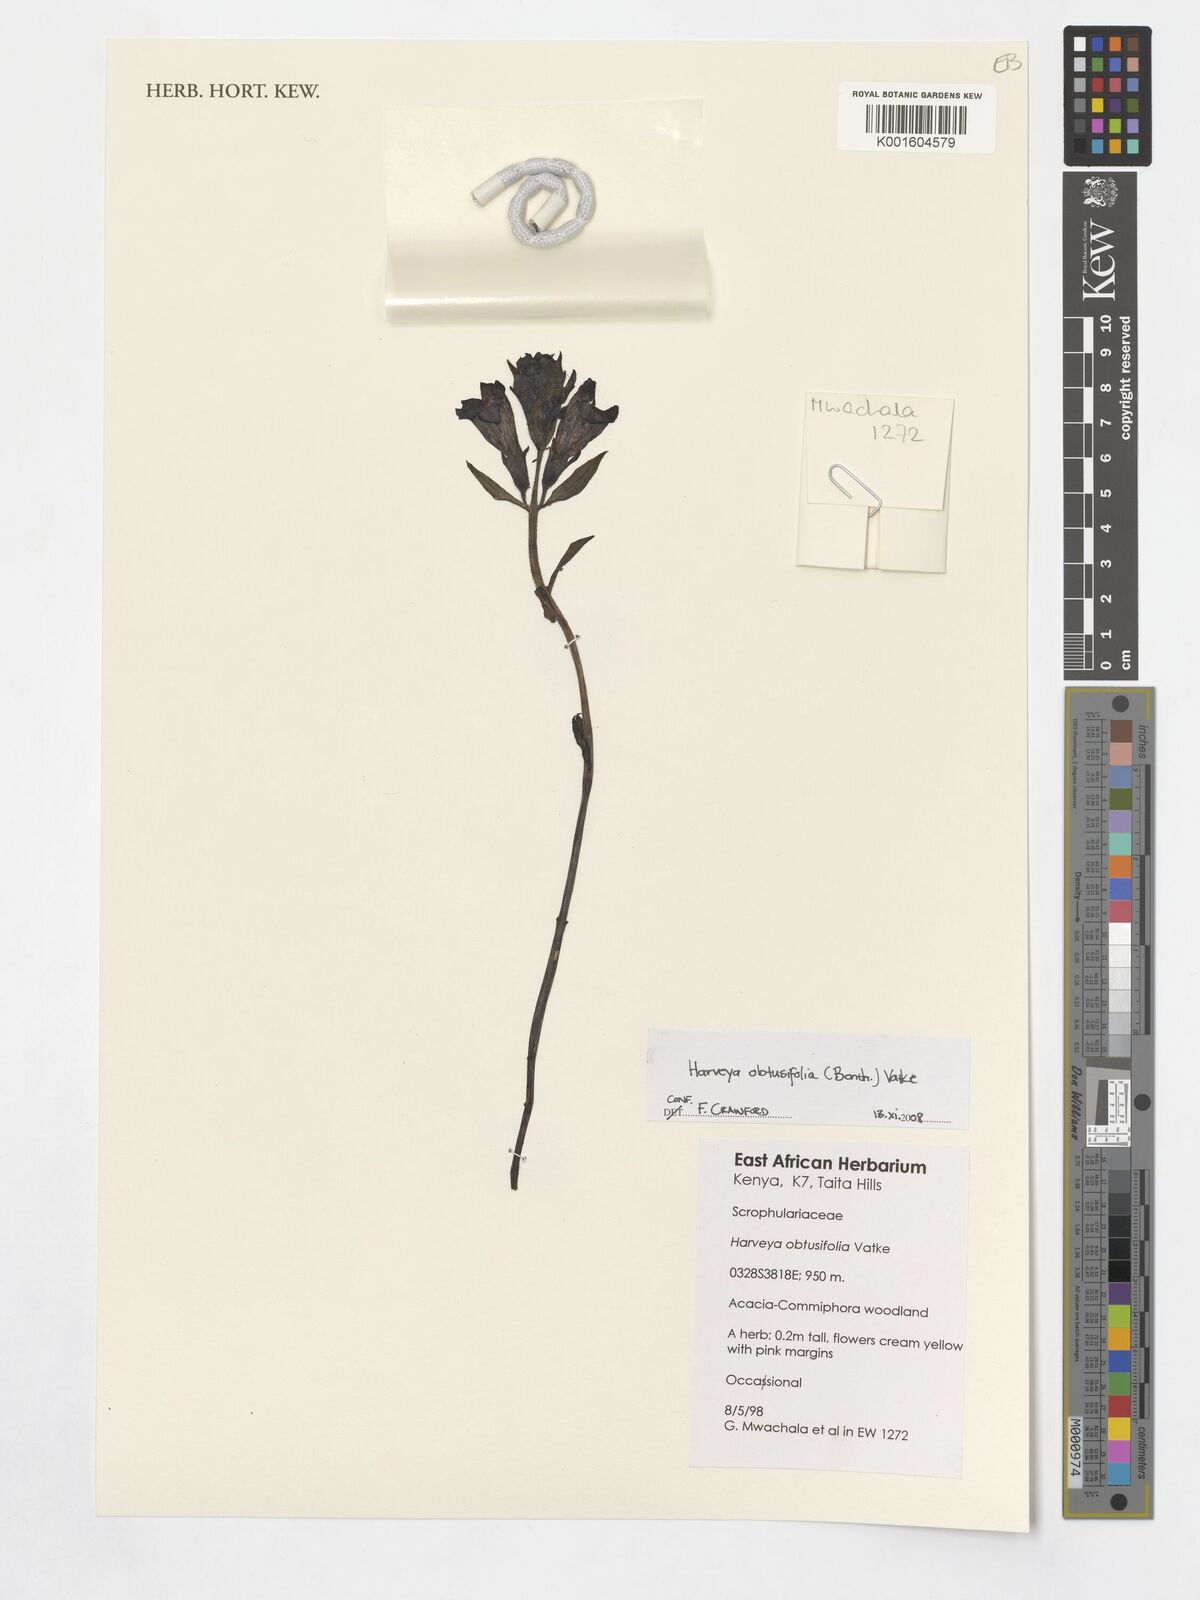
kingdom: Plantae
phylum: Tracheophyta
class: Magnoliopsida
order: Lamiales
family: Orobanchaceae
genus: Harveya
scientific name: Harveya obtusifolia
